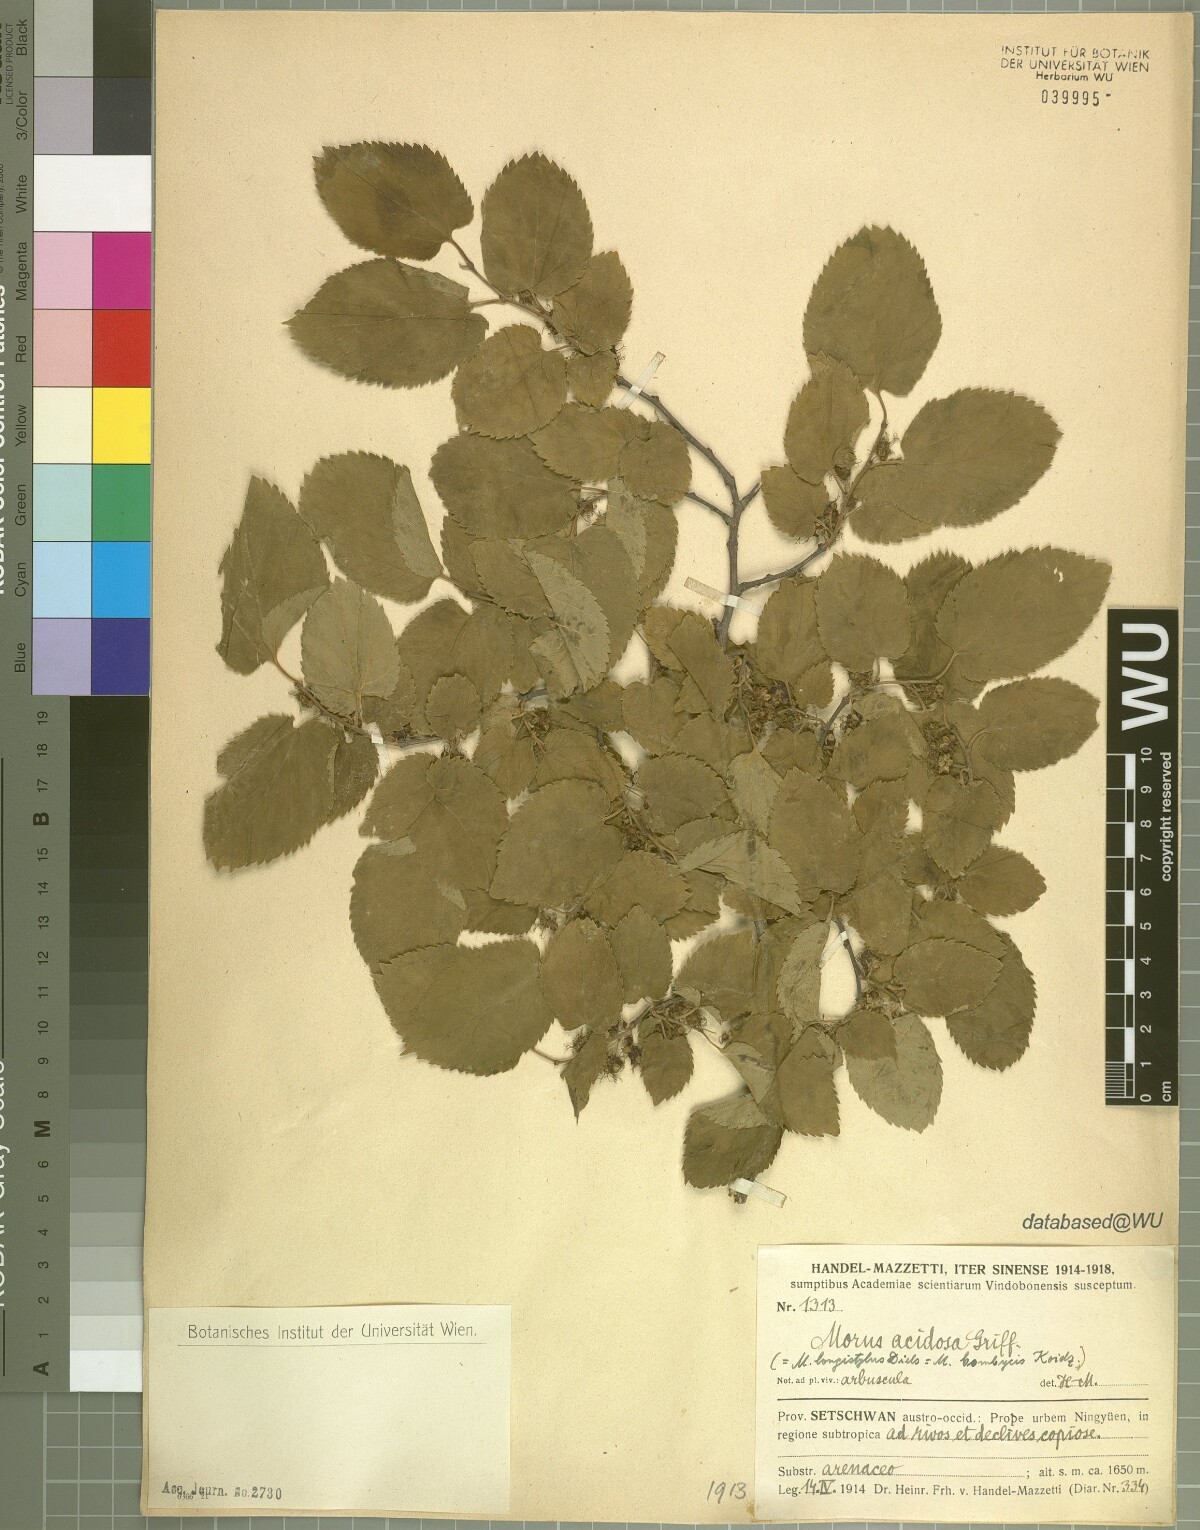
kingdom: Plantae
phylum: Tracheophyta
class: Magnoliopsida
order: Rosales
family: Moraceae
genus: Broussonetia
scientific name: Broussonetia papyrifera
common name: Paper mulberry
